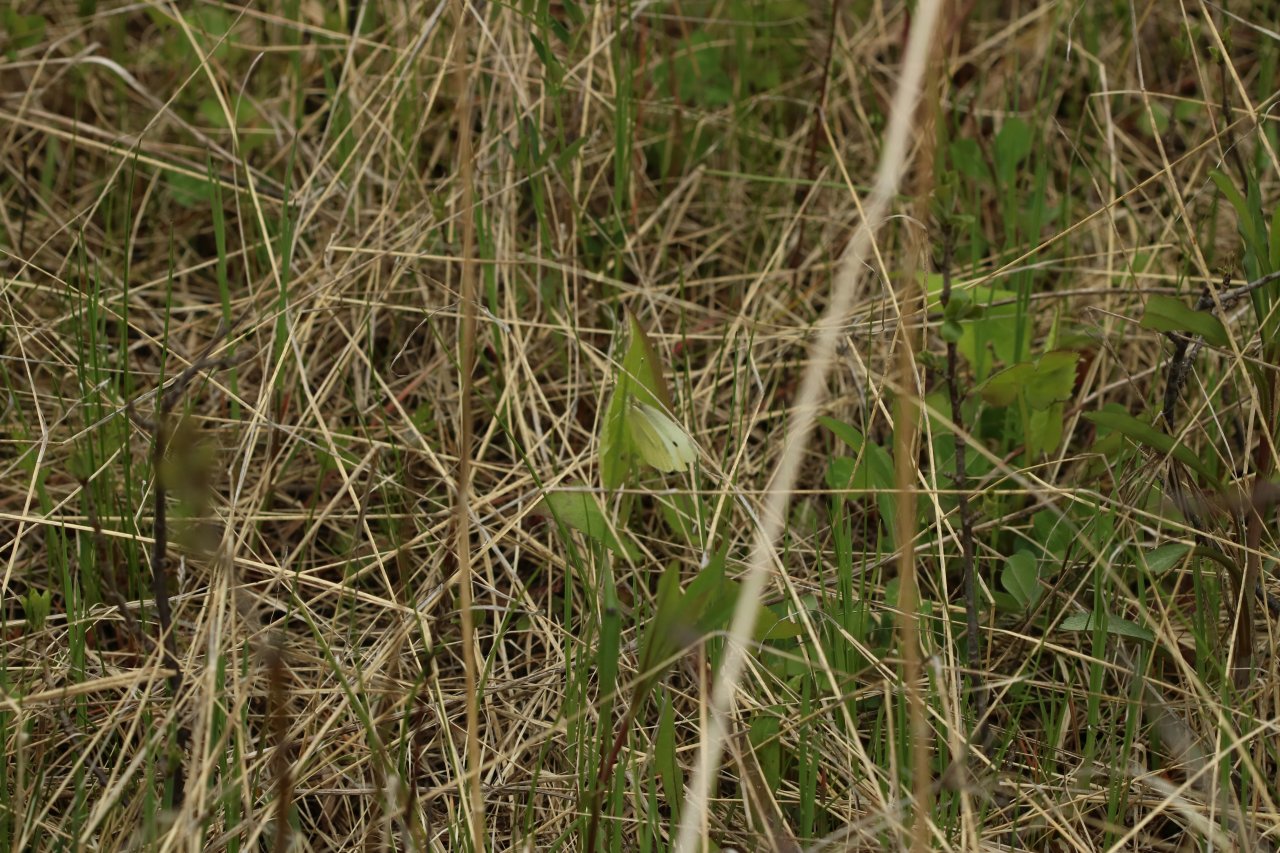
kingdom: Animalia
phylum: Arthropoda
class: Insecta
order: Lepidoptera
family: Pieridae
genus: Pieris
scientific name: Pieris rapae
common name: Cabbage White
